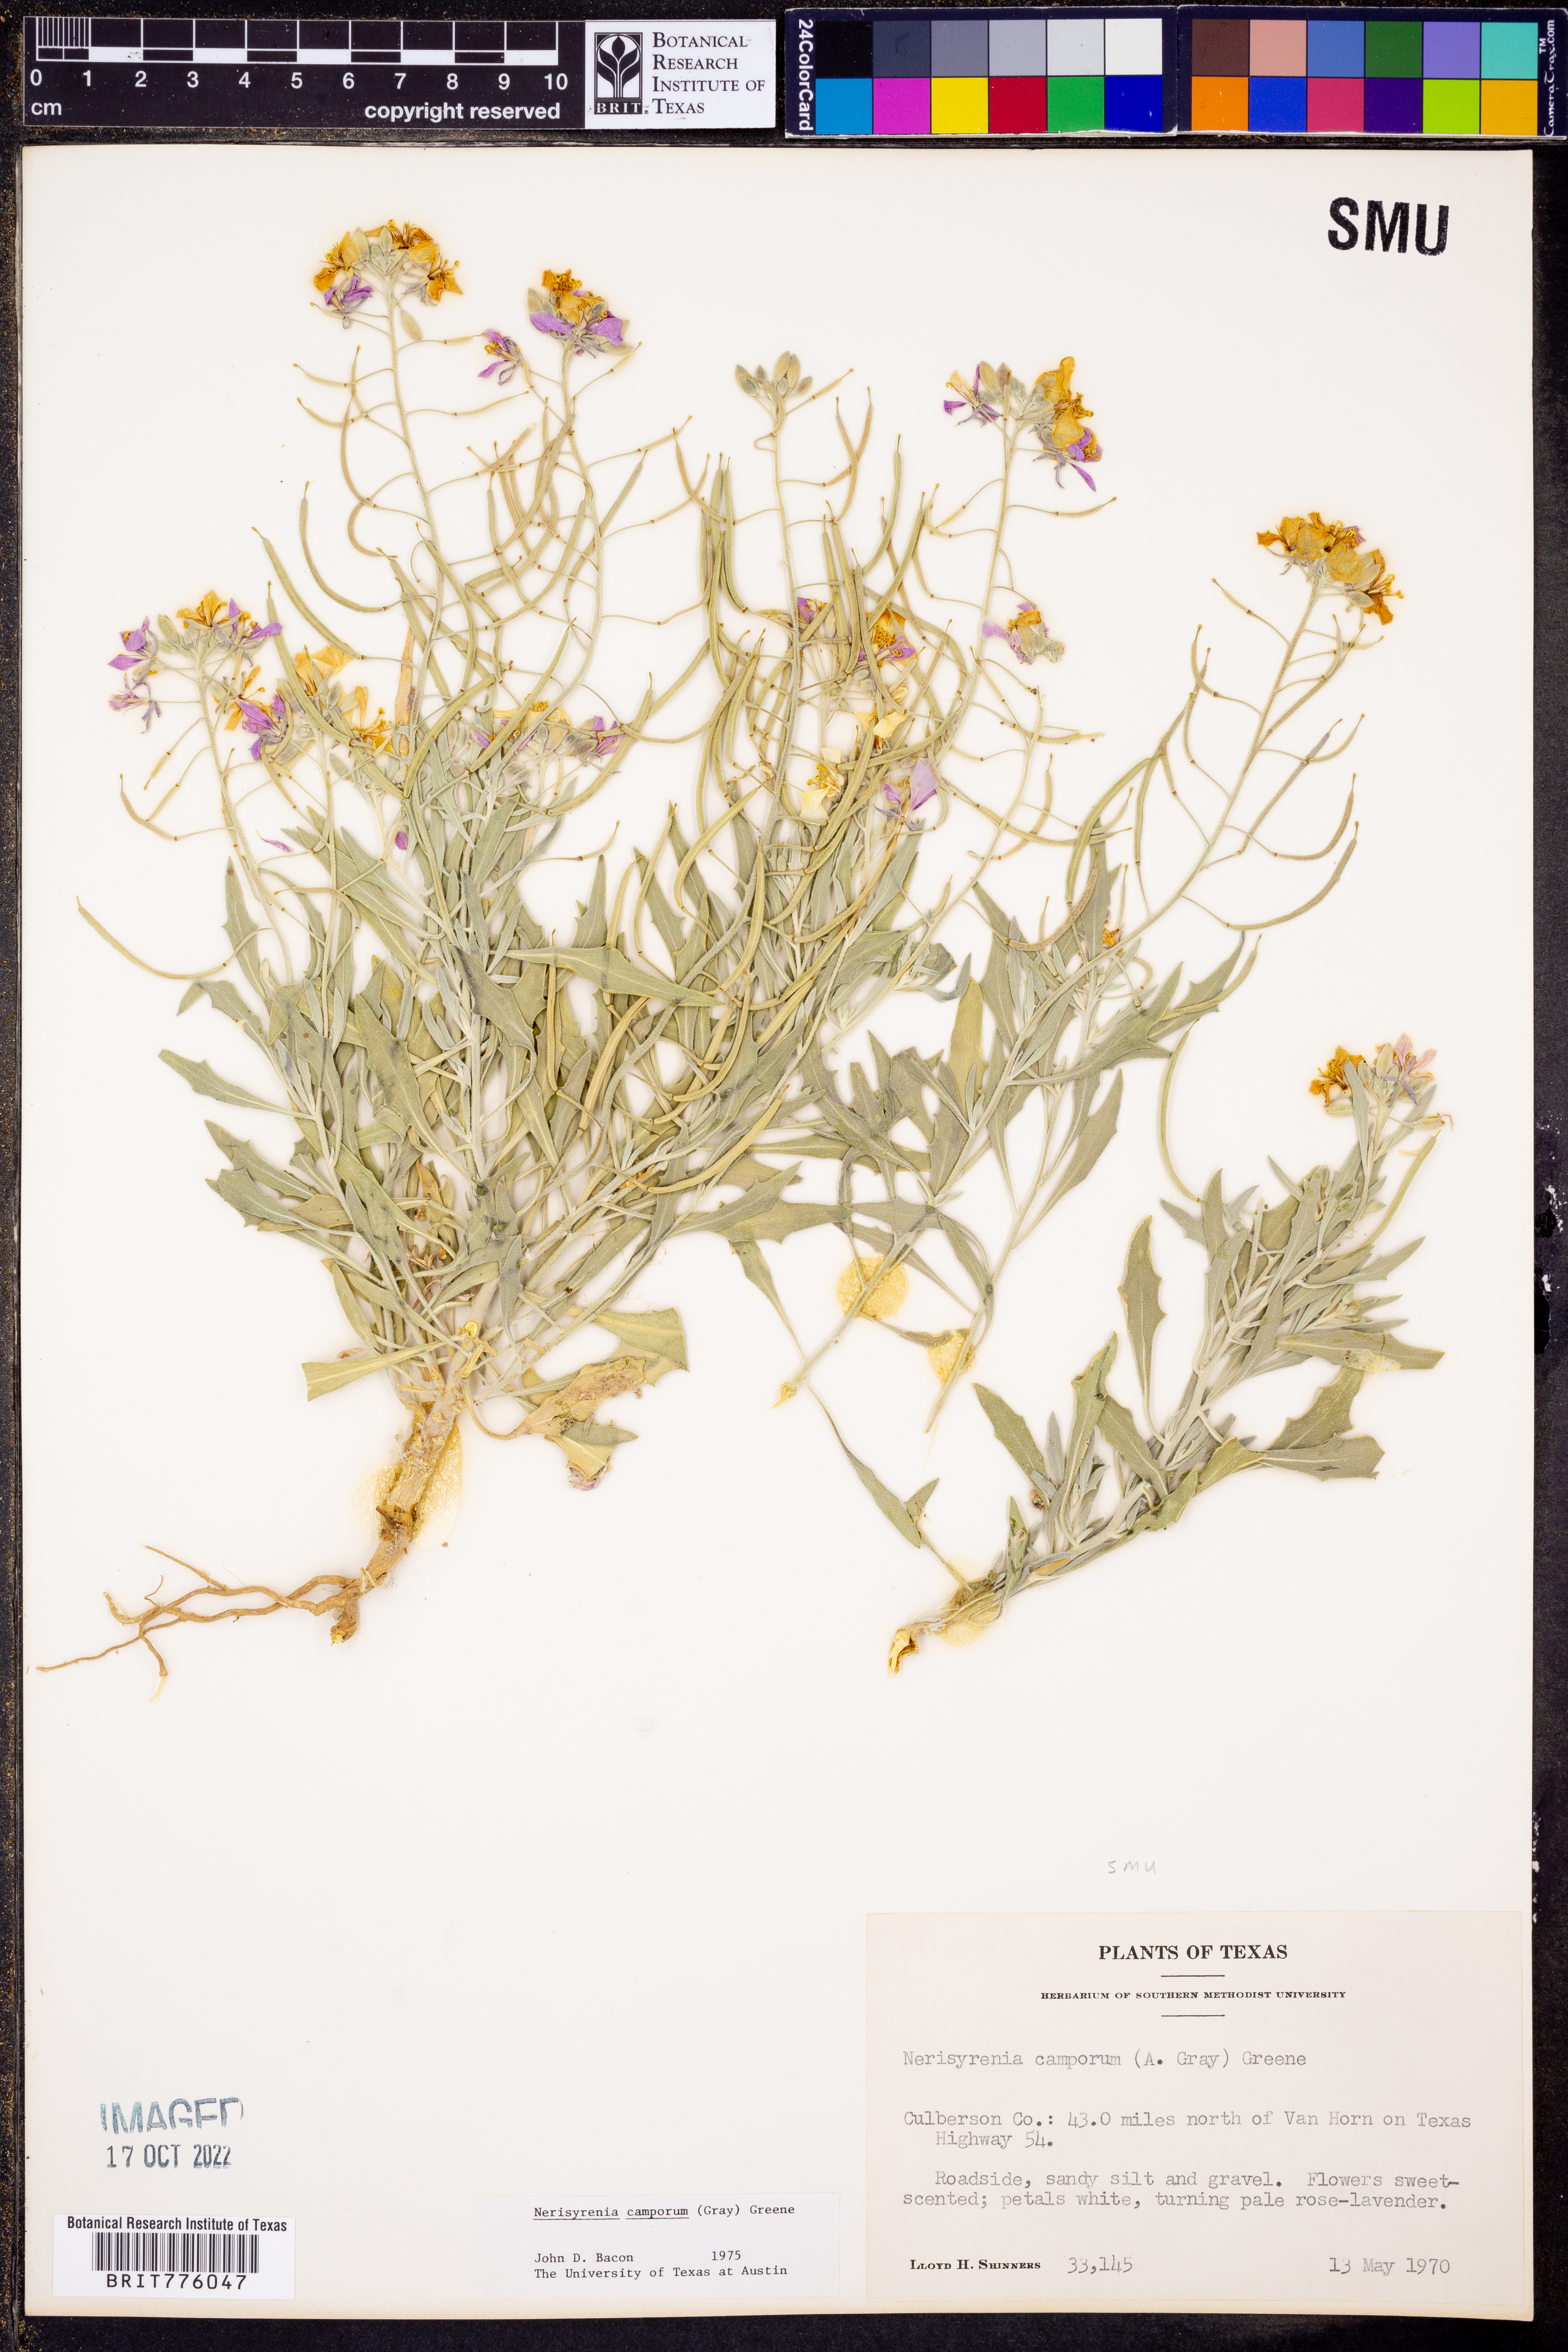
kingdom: Plantae
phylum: Tracheophyta
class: Magnoliopsida
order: Brassicales
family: Brassicaceae
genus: Nerisyrenia
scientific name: Nerisyrenia camporum
